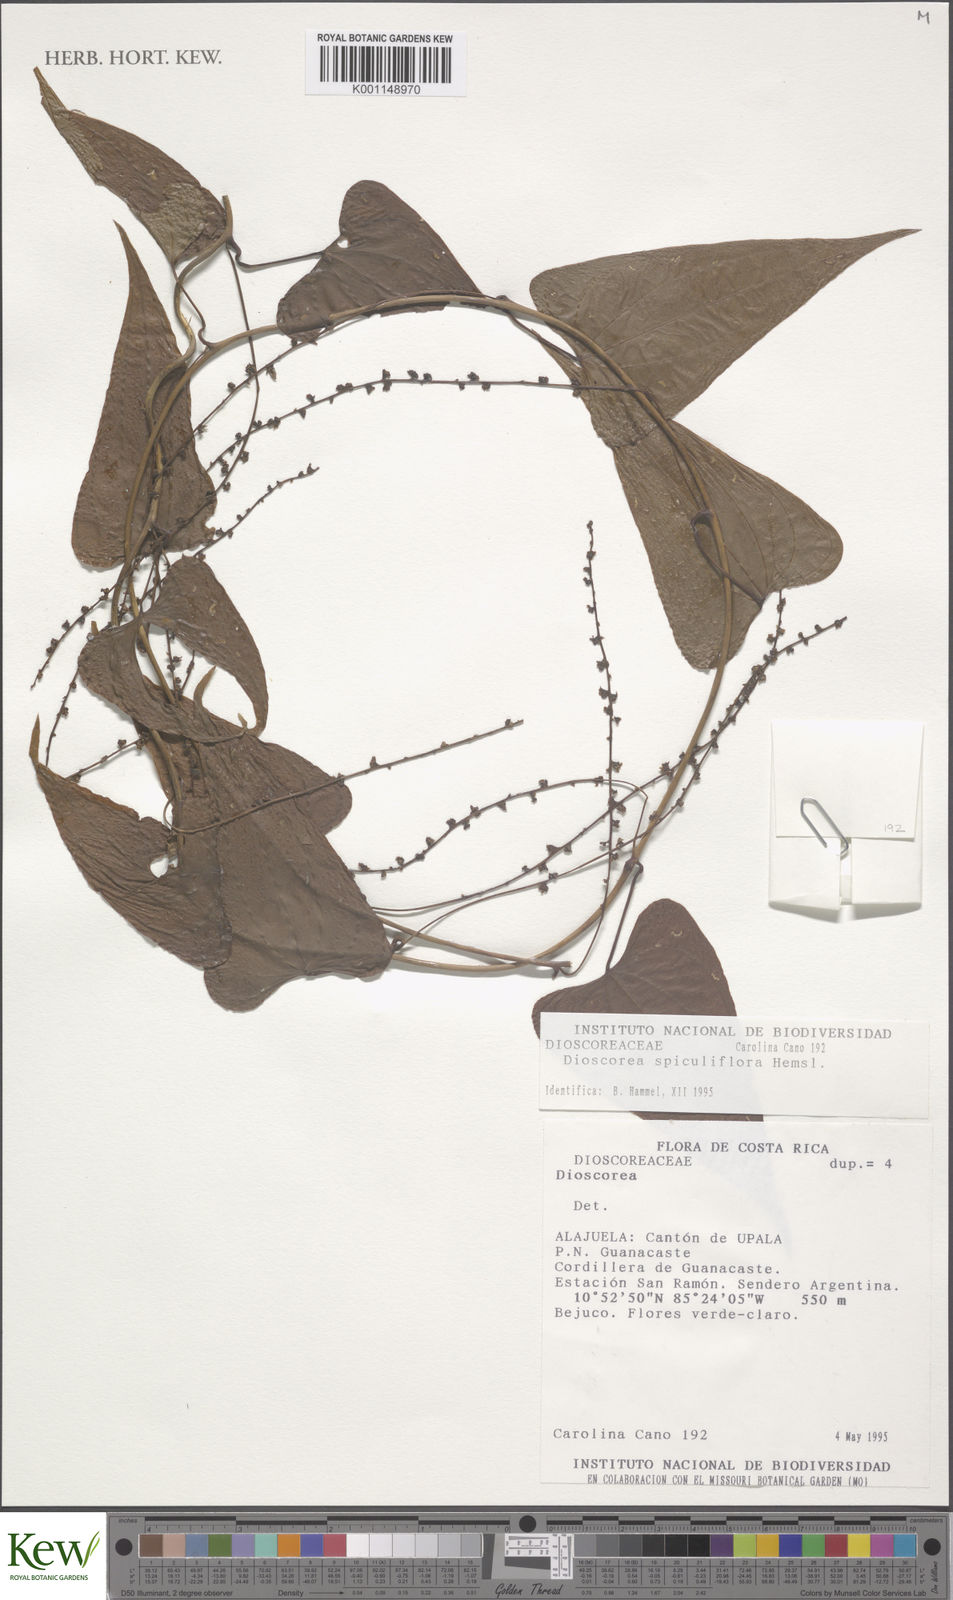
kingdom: Plantae
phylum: Tracheophyta
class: Liliopsida
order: Dioscoreales
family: Dioscoreaceae
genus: Dioscorea
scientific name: Dioscorea spiculiflora
